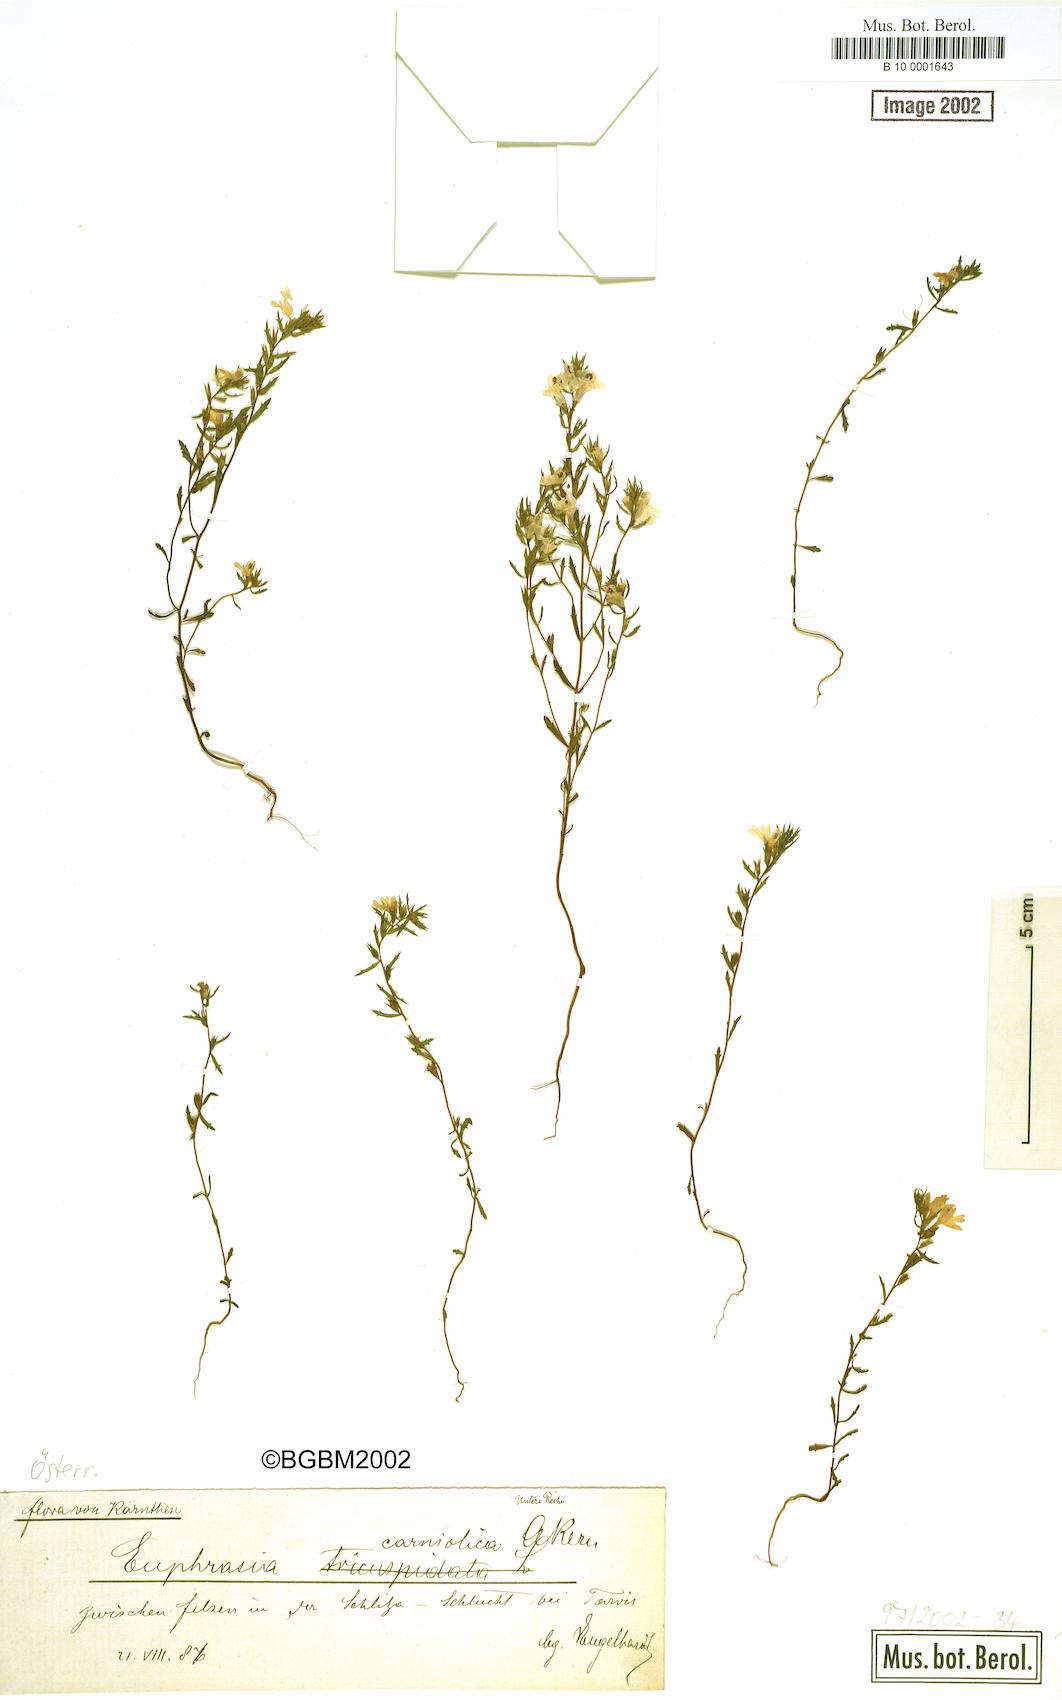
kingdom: Plantae
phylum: Tracheophyta
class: Magnoliopsida
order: Lamiales
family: Orobanchaceae
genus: Euphrasia
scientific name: Euphrasia officinalis
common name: Eyebright
